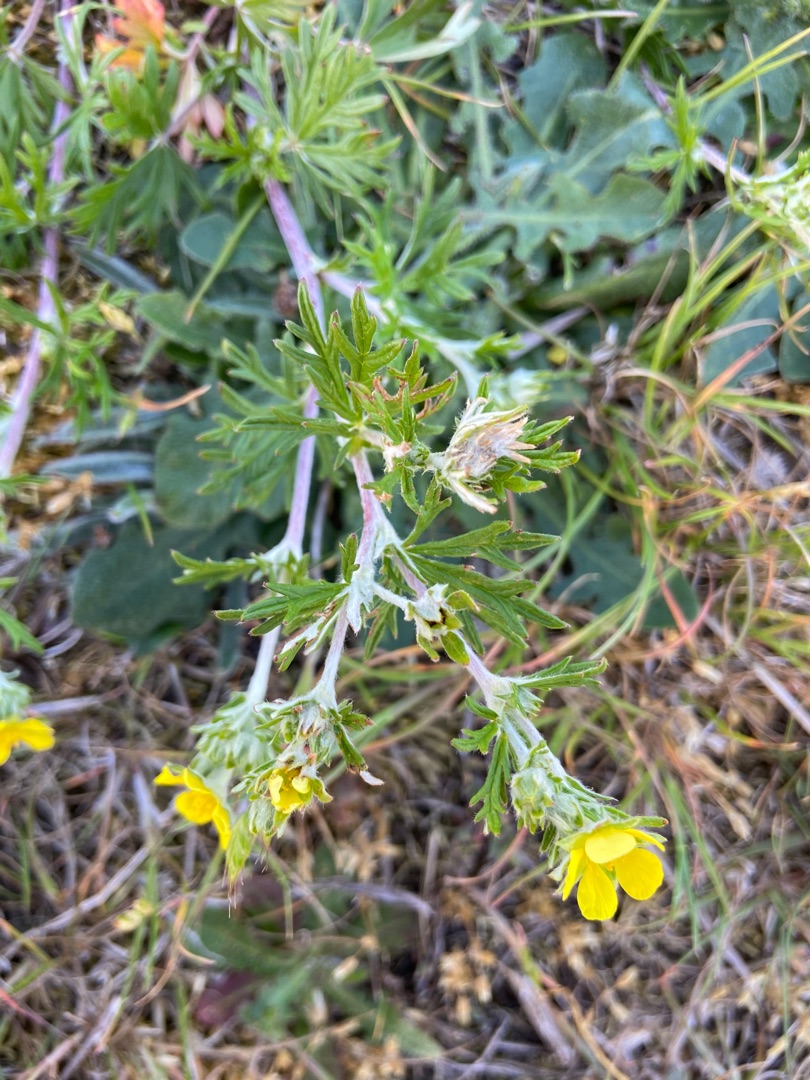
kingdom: Plantae
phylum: Tracheophyta
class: Magnoliopsida
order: Rosales
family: Rosaceae
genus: Potentilla
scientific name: Potentilla argentea
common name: Sølv-potentil
